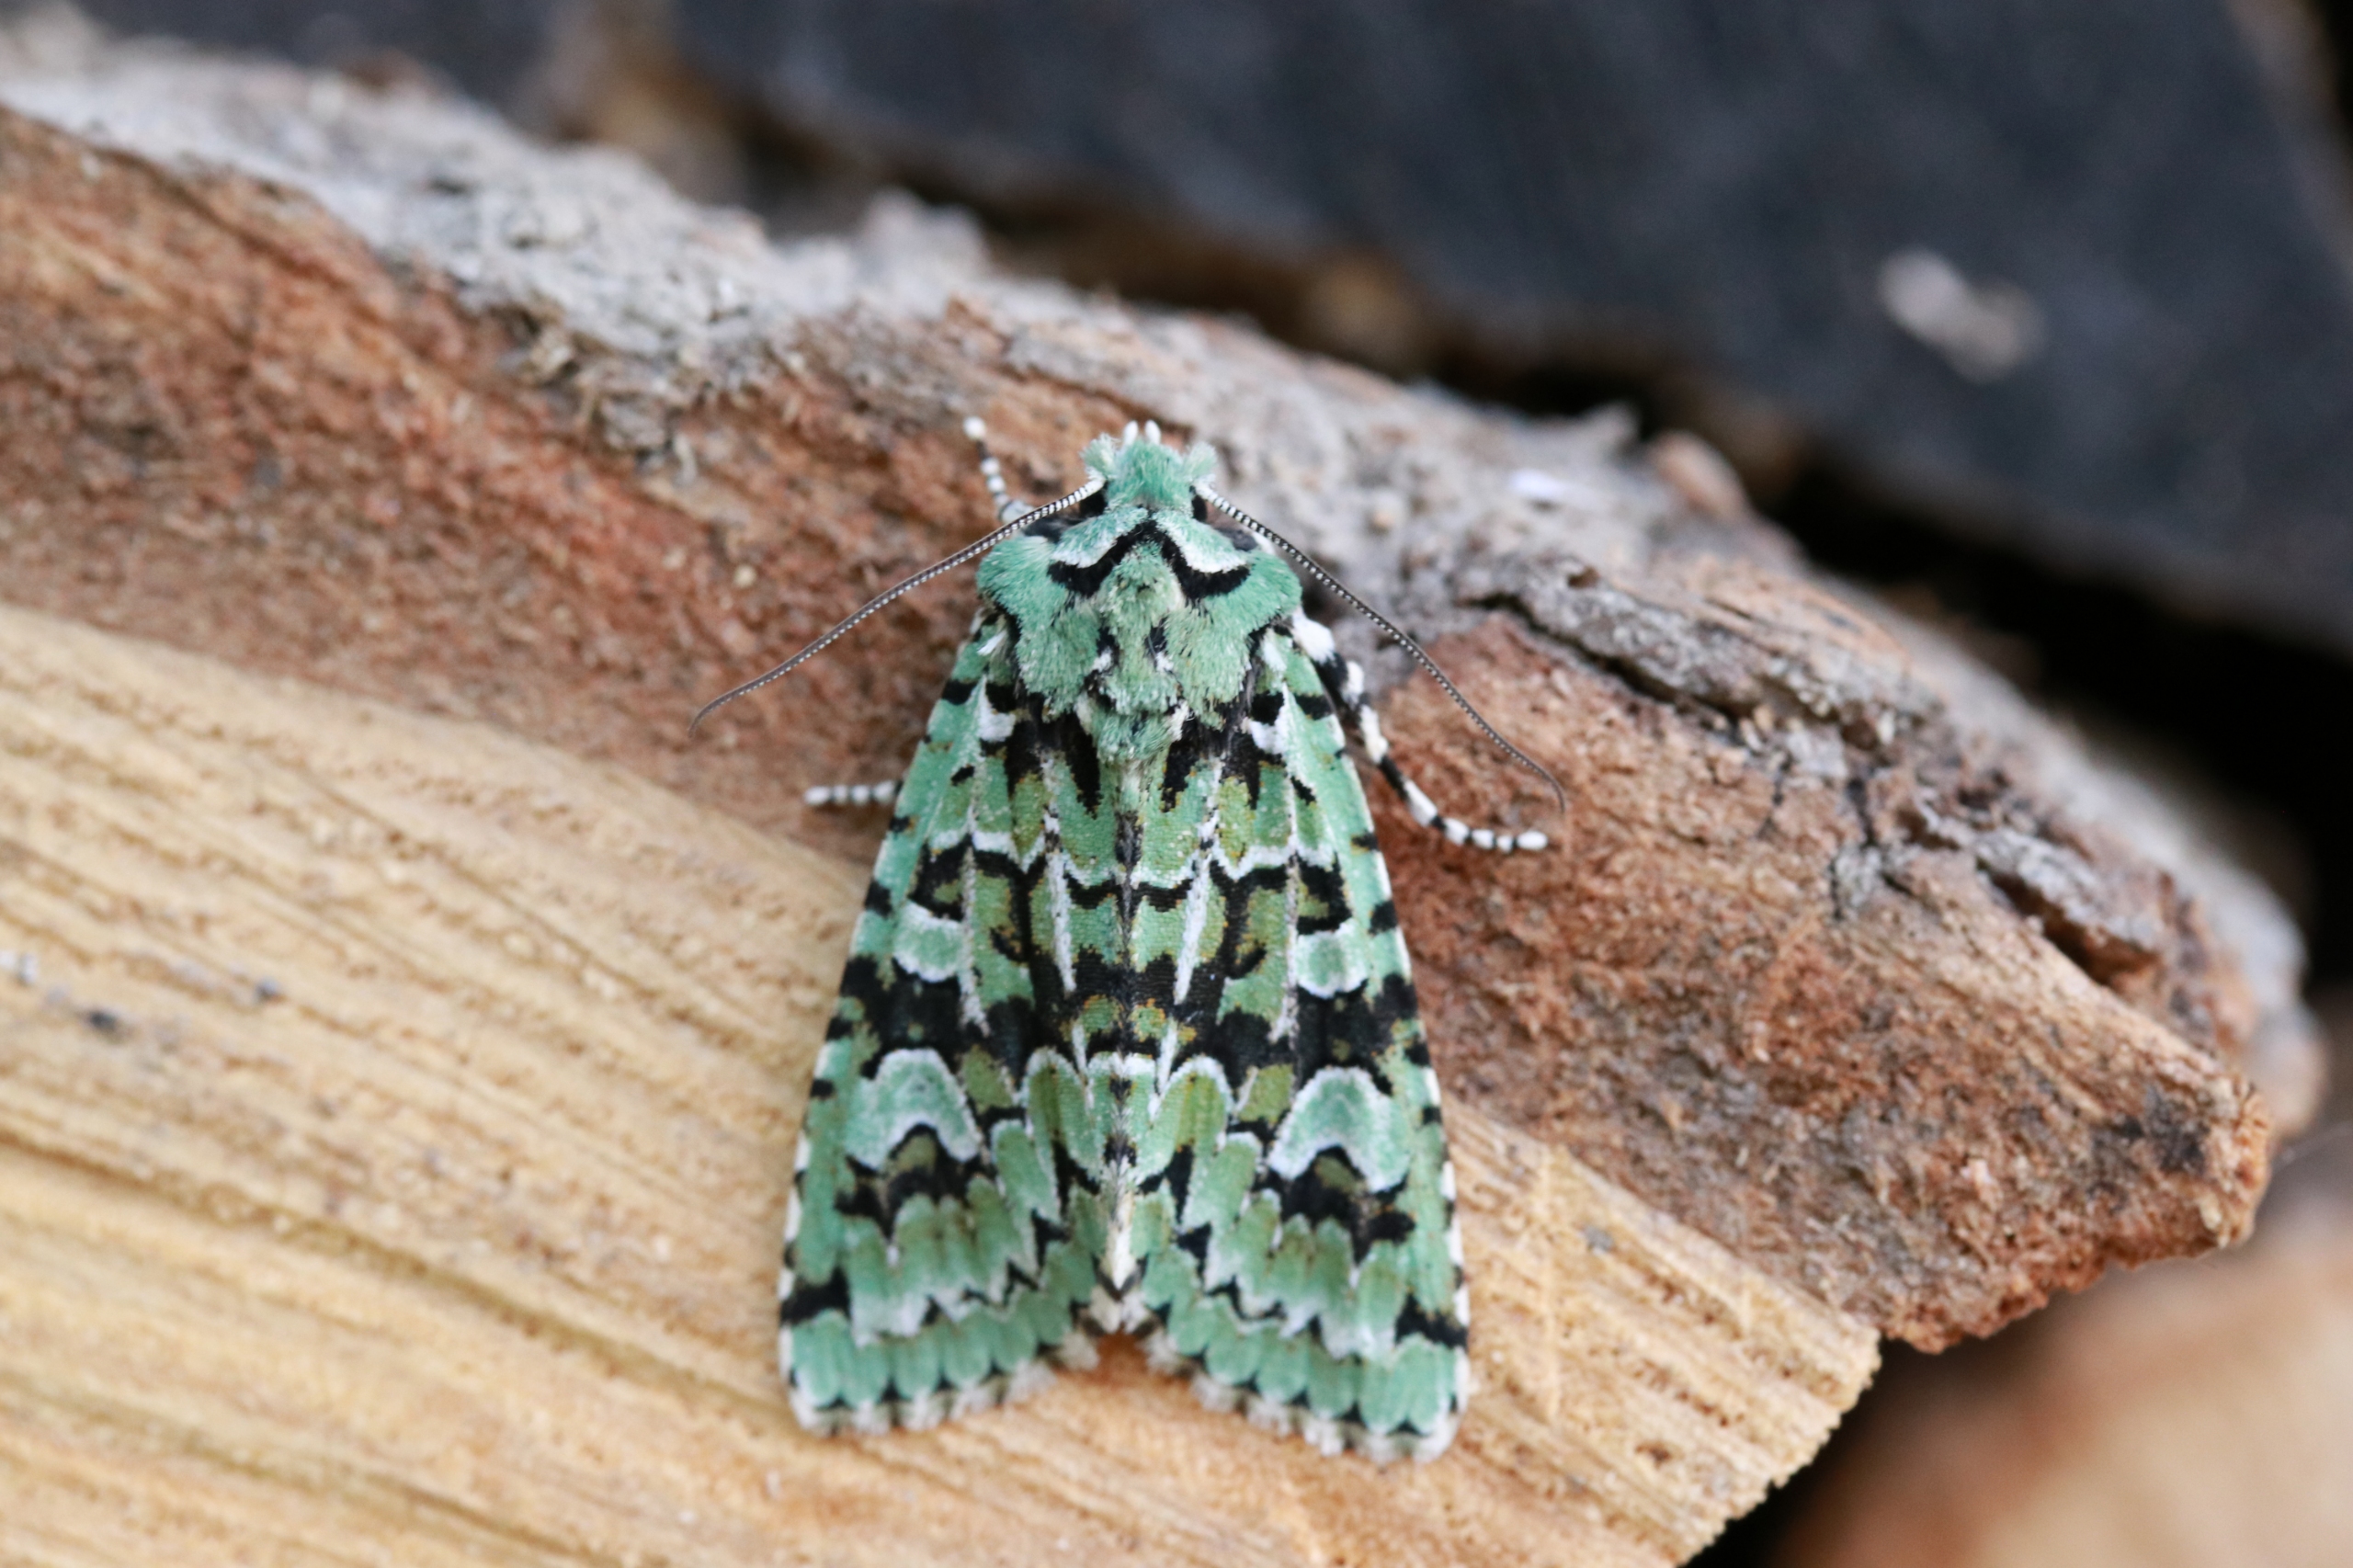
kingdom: Animalia
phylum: Arthropoda
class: Insecta
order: Lepidoptera
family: Noctuidae
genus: Griposia
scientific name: Griposia aprilina
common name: Aprilugle
